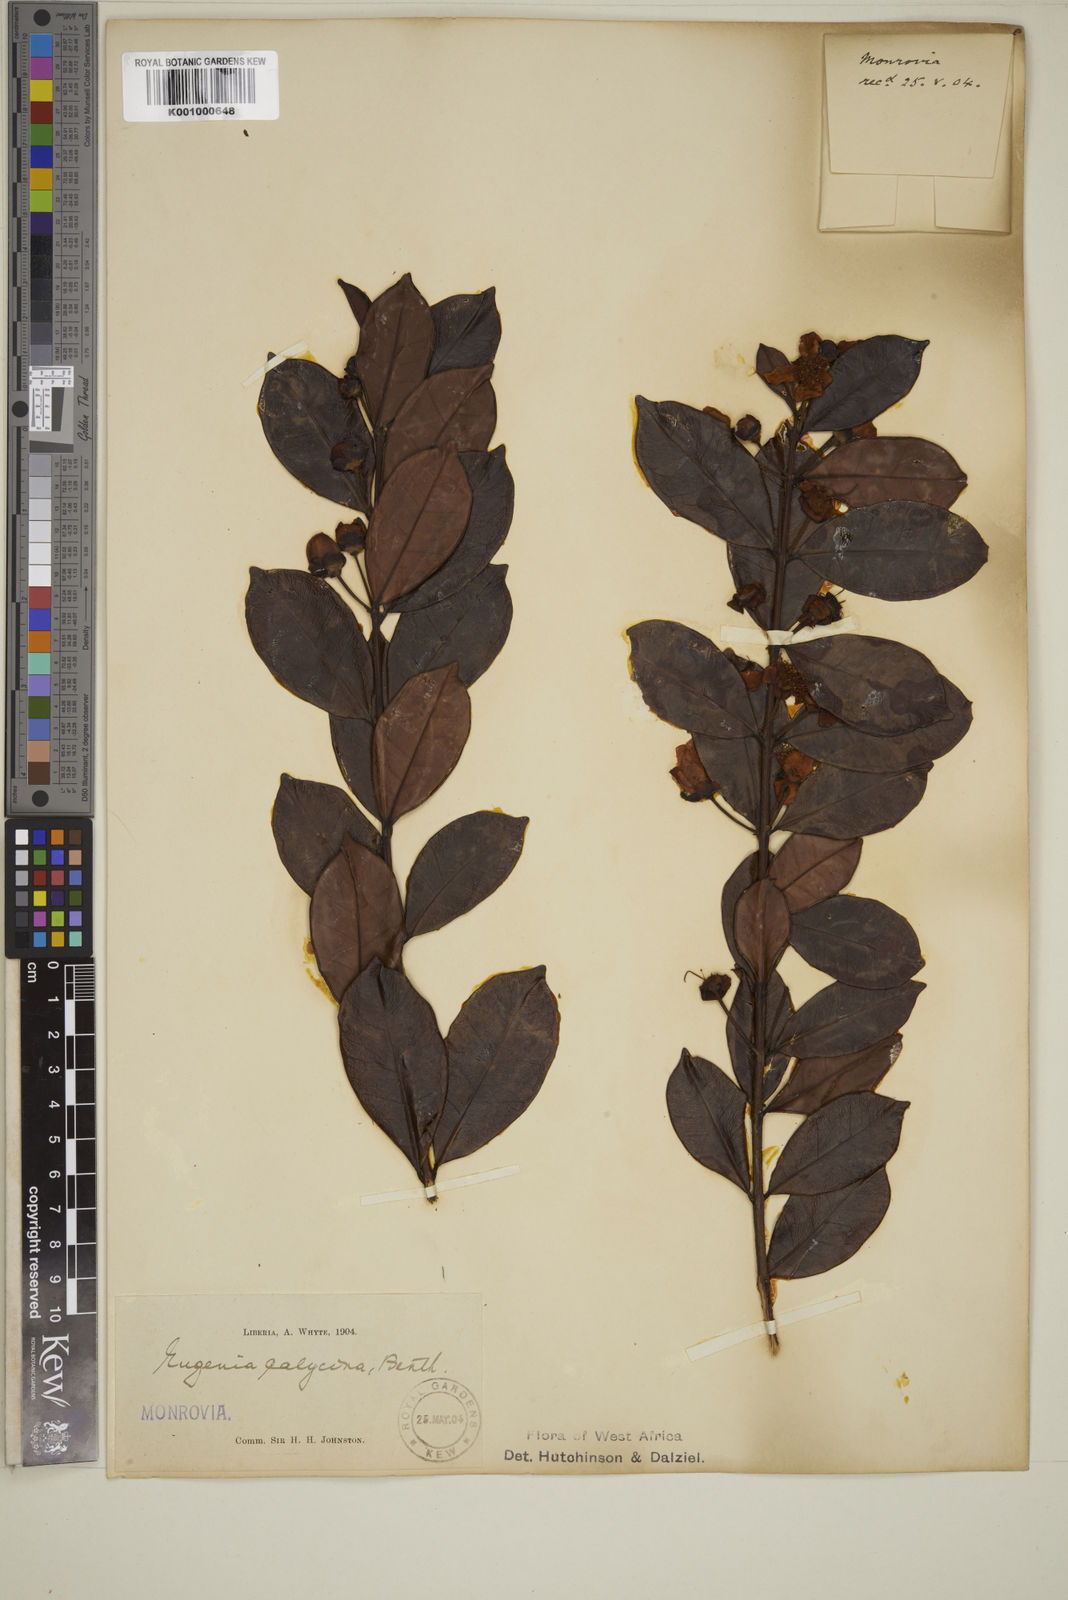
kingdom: Plantae
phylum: Tracheophyta
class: Magnoliopsida
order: Myrtales
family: Myrtaceae
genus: Eugenia
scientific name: Eugenia liberiana
